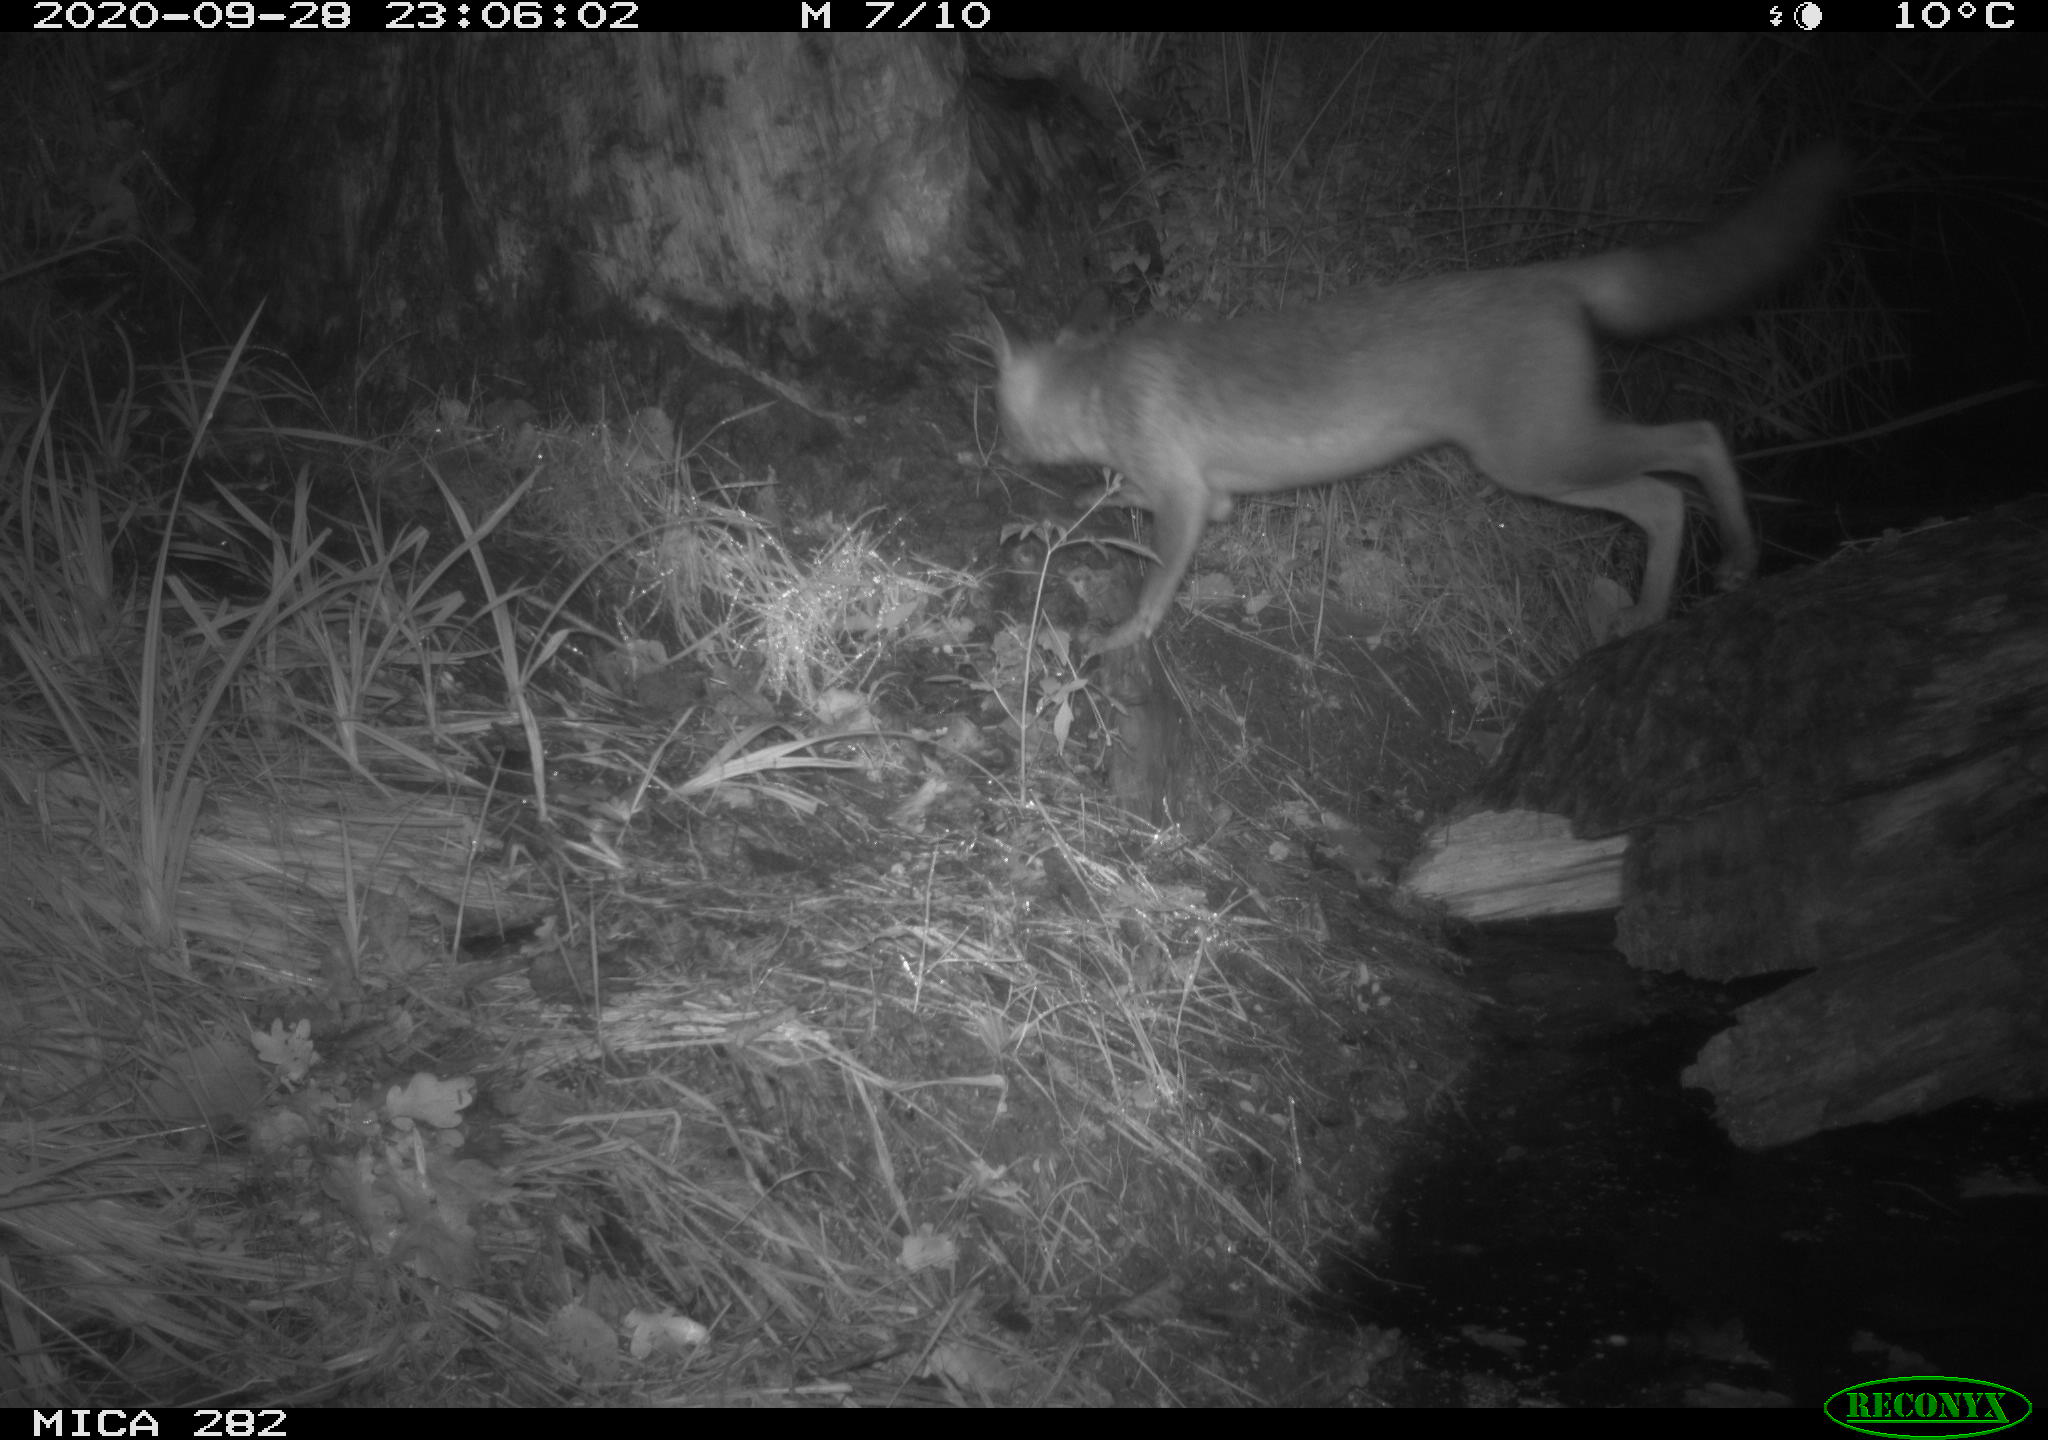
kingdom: Animalia
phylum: Chordata
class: Mammalia
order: Carnivora
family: Canidae
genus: Vulpes
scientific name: Vulpes vulpes
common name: Red fox
